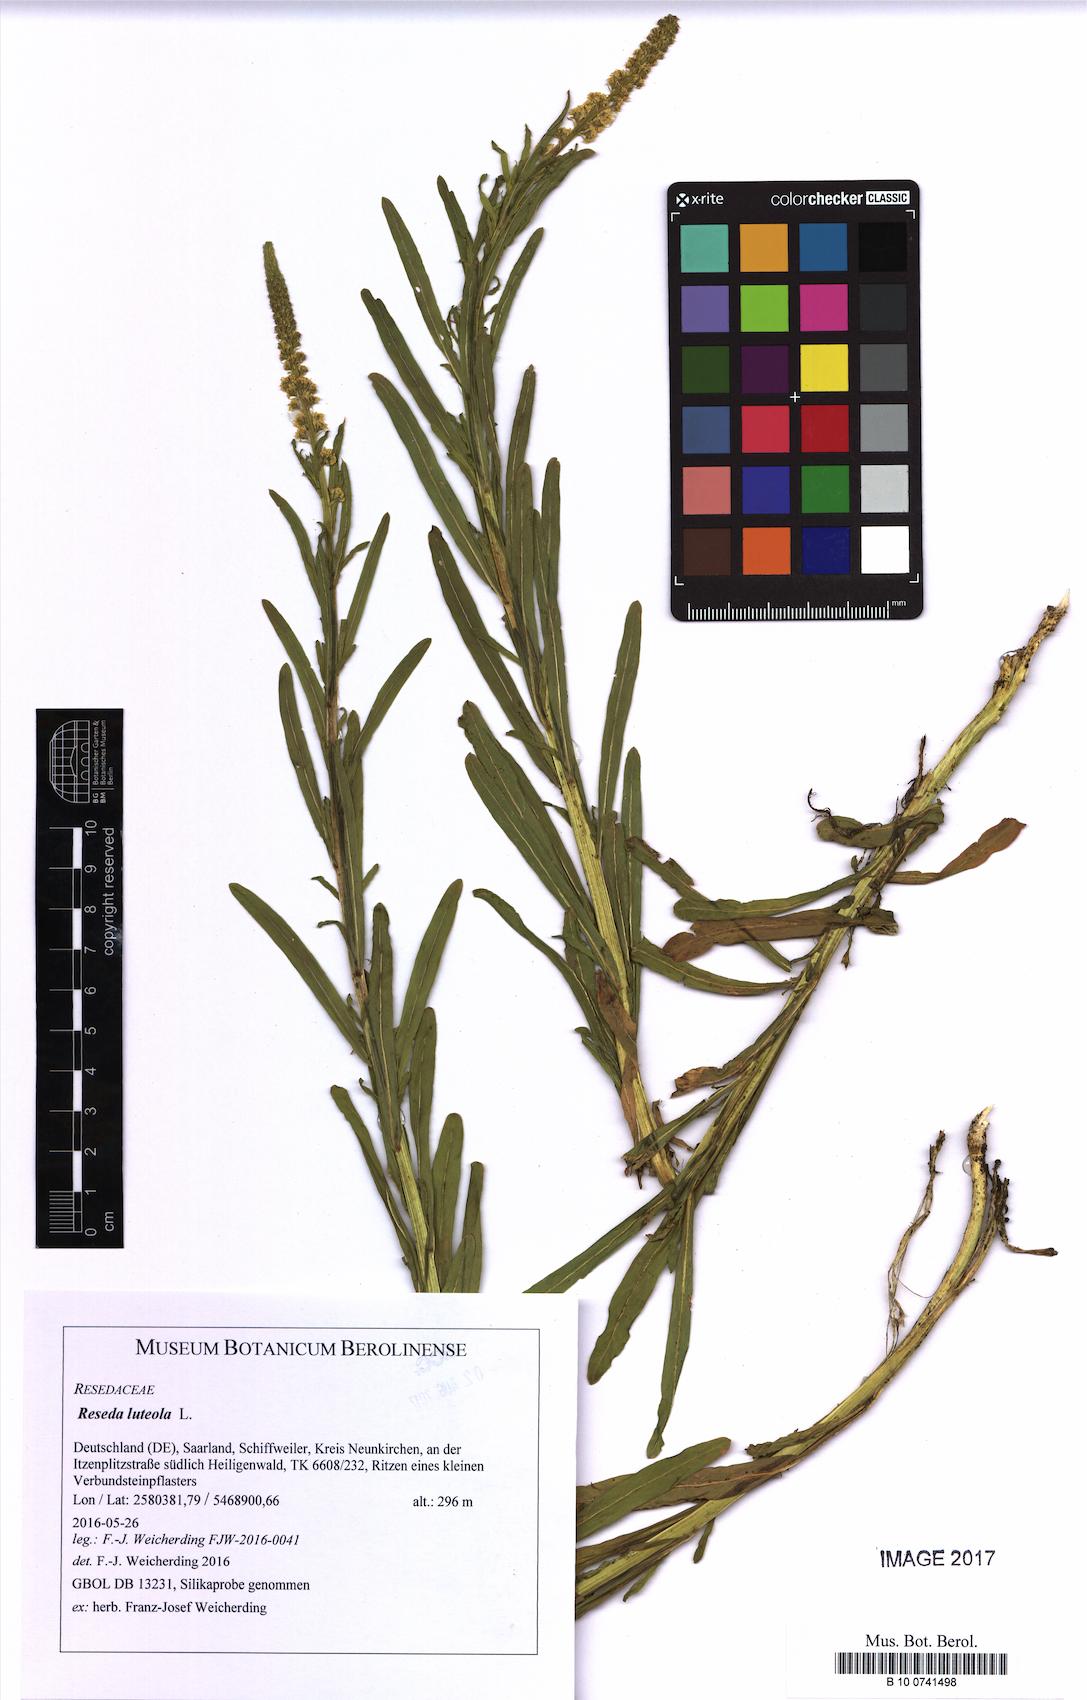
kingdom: Plantae
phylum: Tracheophyta
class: Magnoliopsida
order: Brassicales
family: Resedaceae
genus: Reseda
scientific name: Reseda luteola
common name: Weld
